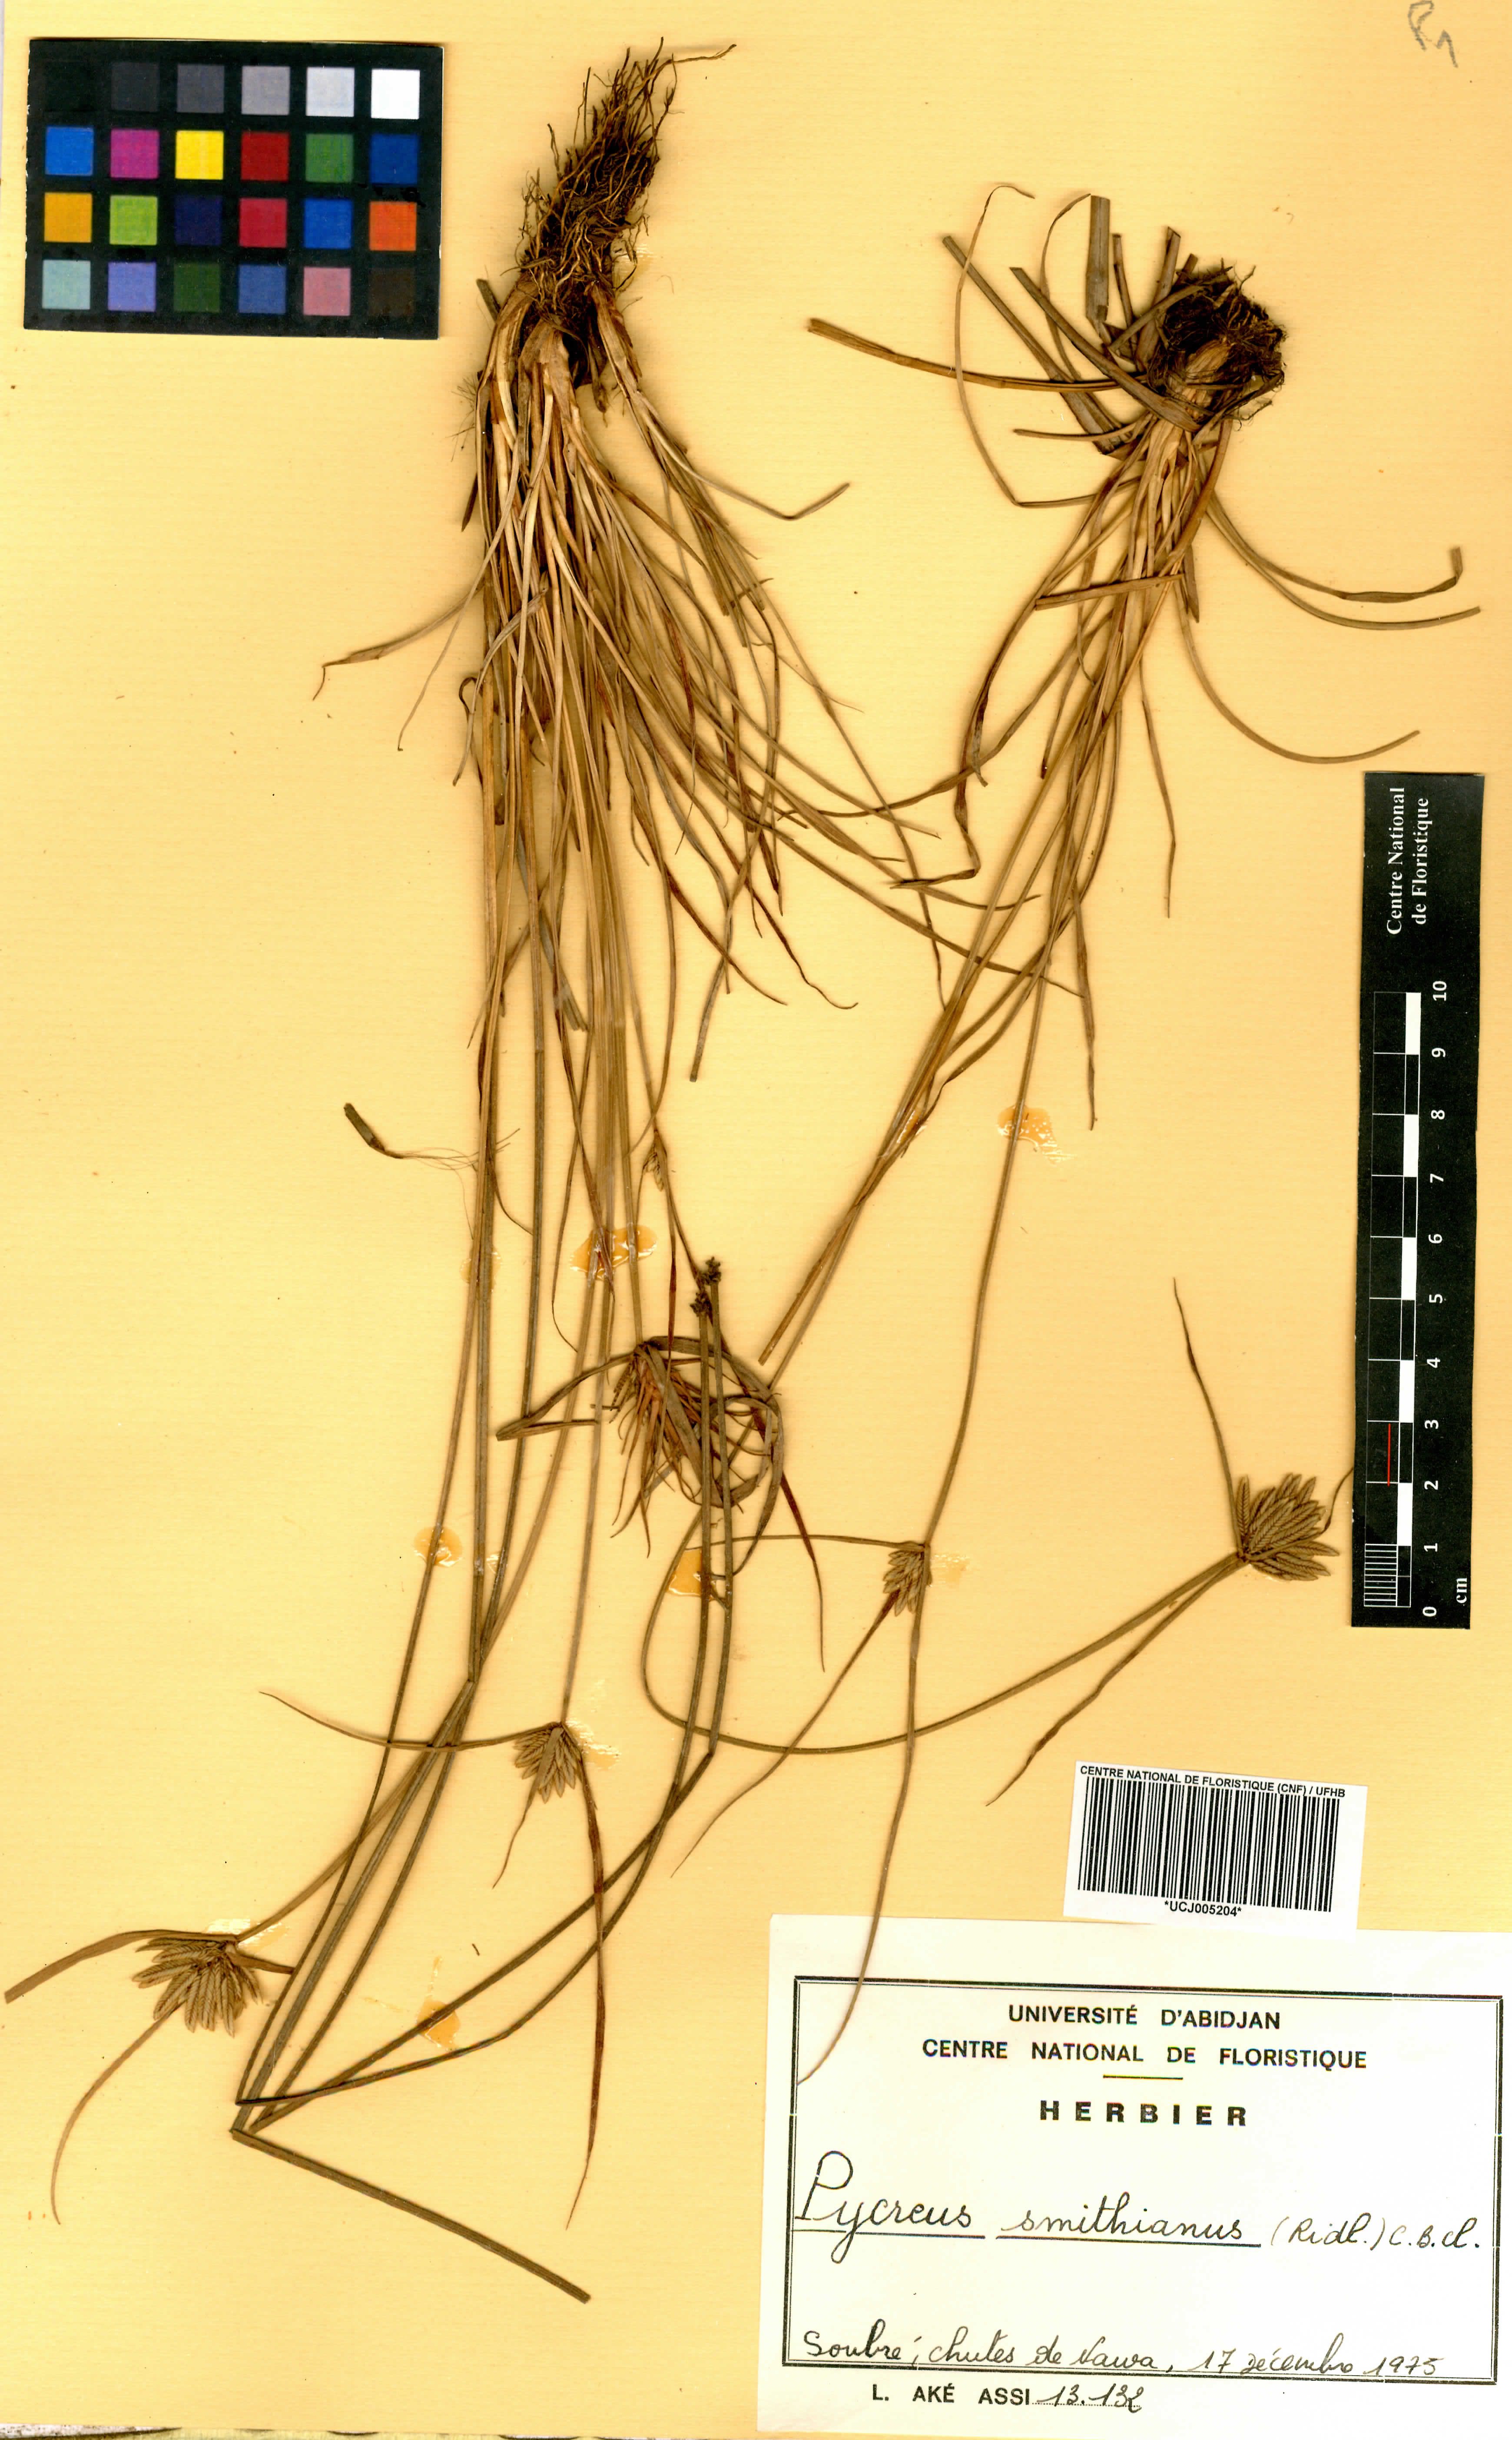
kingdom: Plantae
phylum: Tracheophyta
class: Liliopsida
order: Poales
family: Cyperaceae
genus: Cyperus
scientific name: Cyperus smithianus
